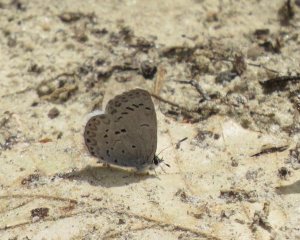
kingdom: Animalia
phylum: Arthropoda
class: Insecta
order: Lepidoptera
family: Lycaenidae
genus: Celastrina
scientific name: Celastrina
